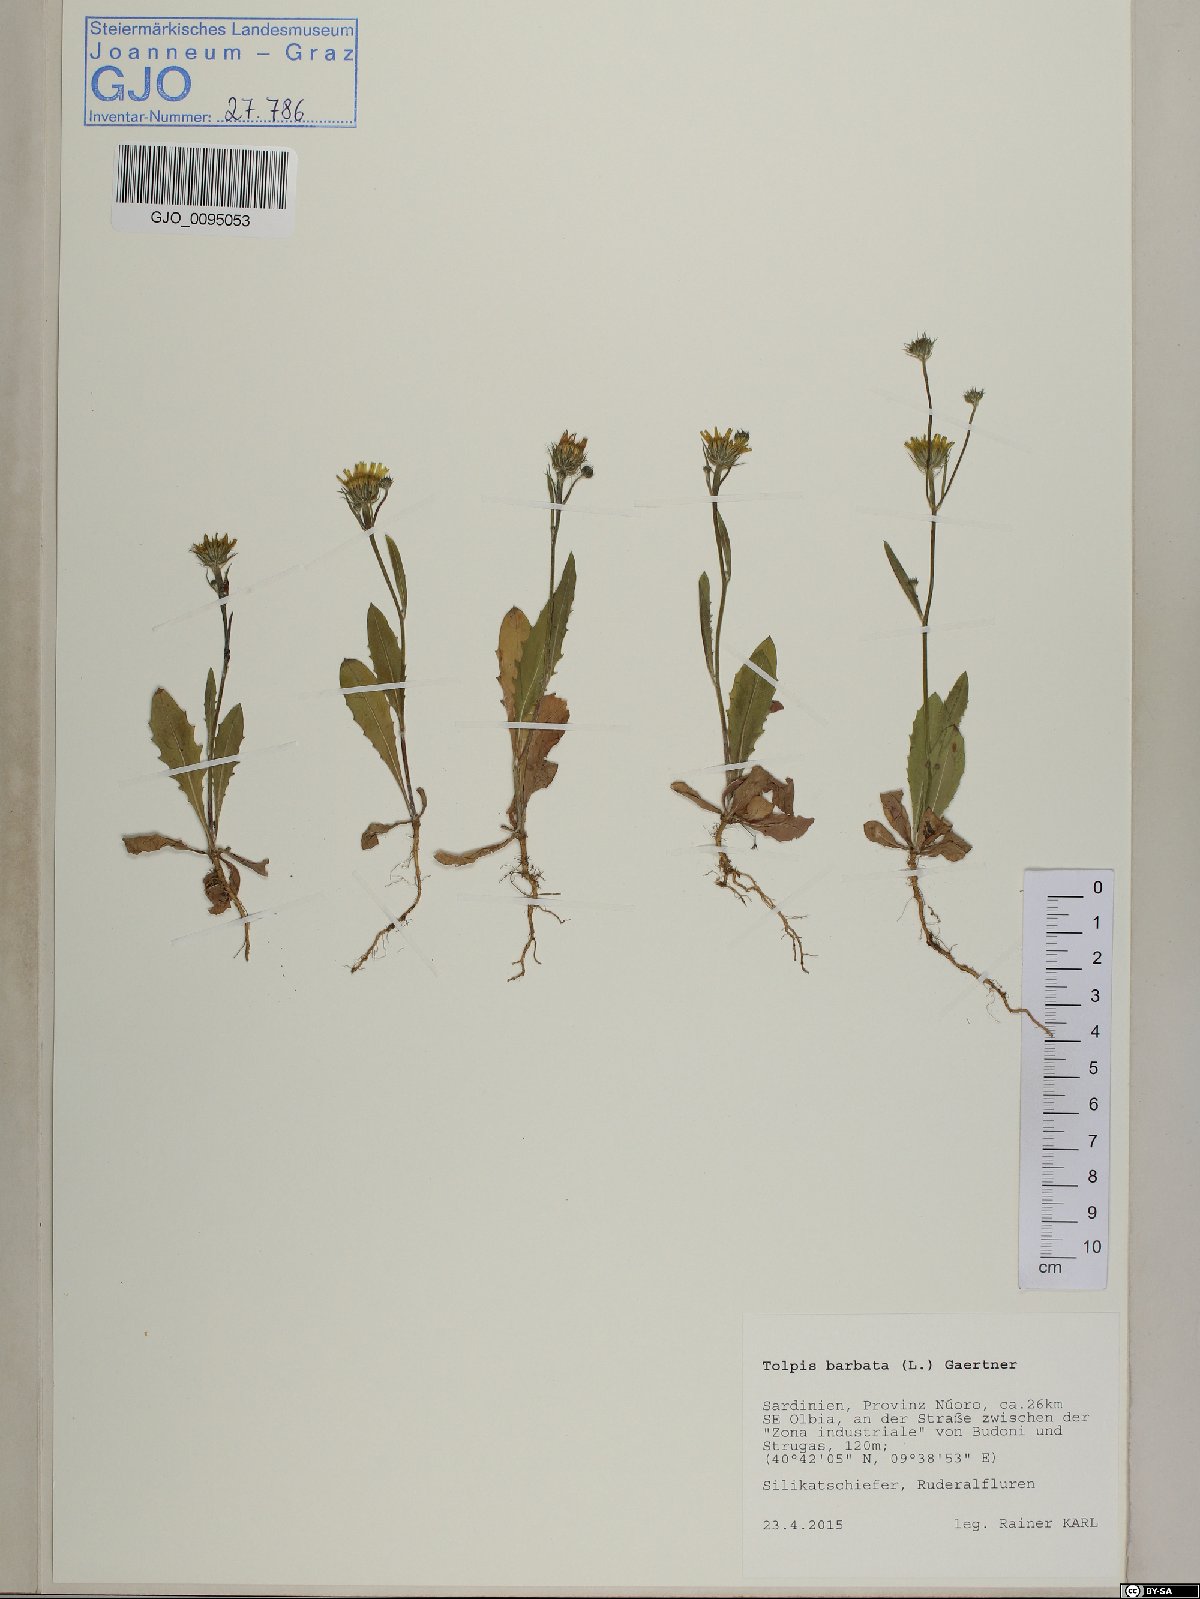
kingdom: Plantae
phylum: Tracheophyta
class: Magnoliopsida
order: Asterales
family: Asteraceae
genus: Tolpis
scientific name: Tolpis barbata
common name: Yellow hawkweed
